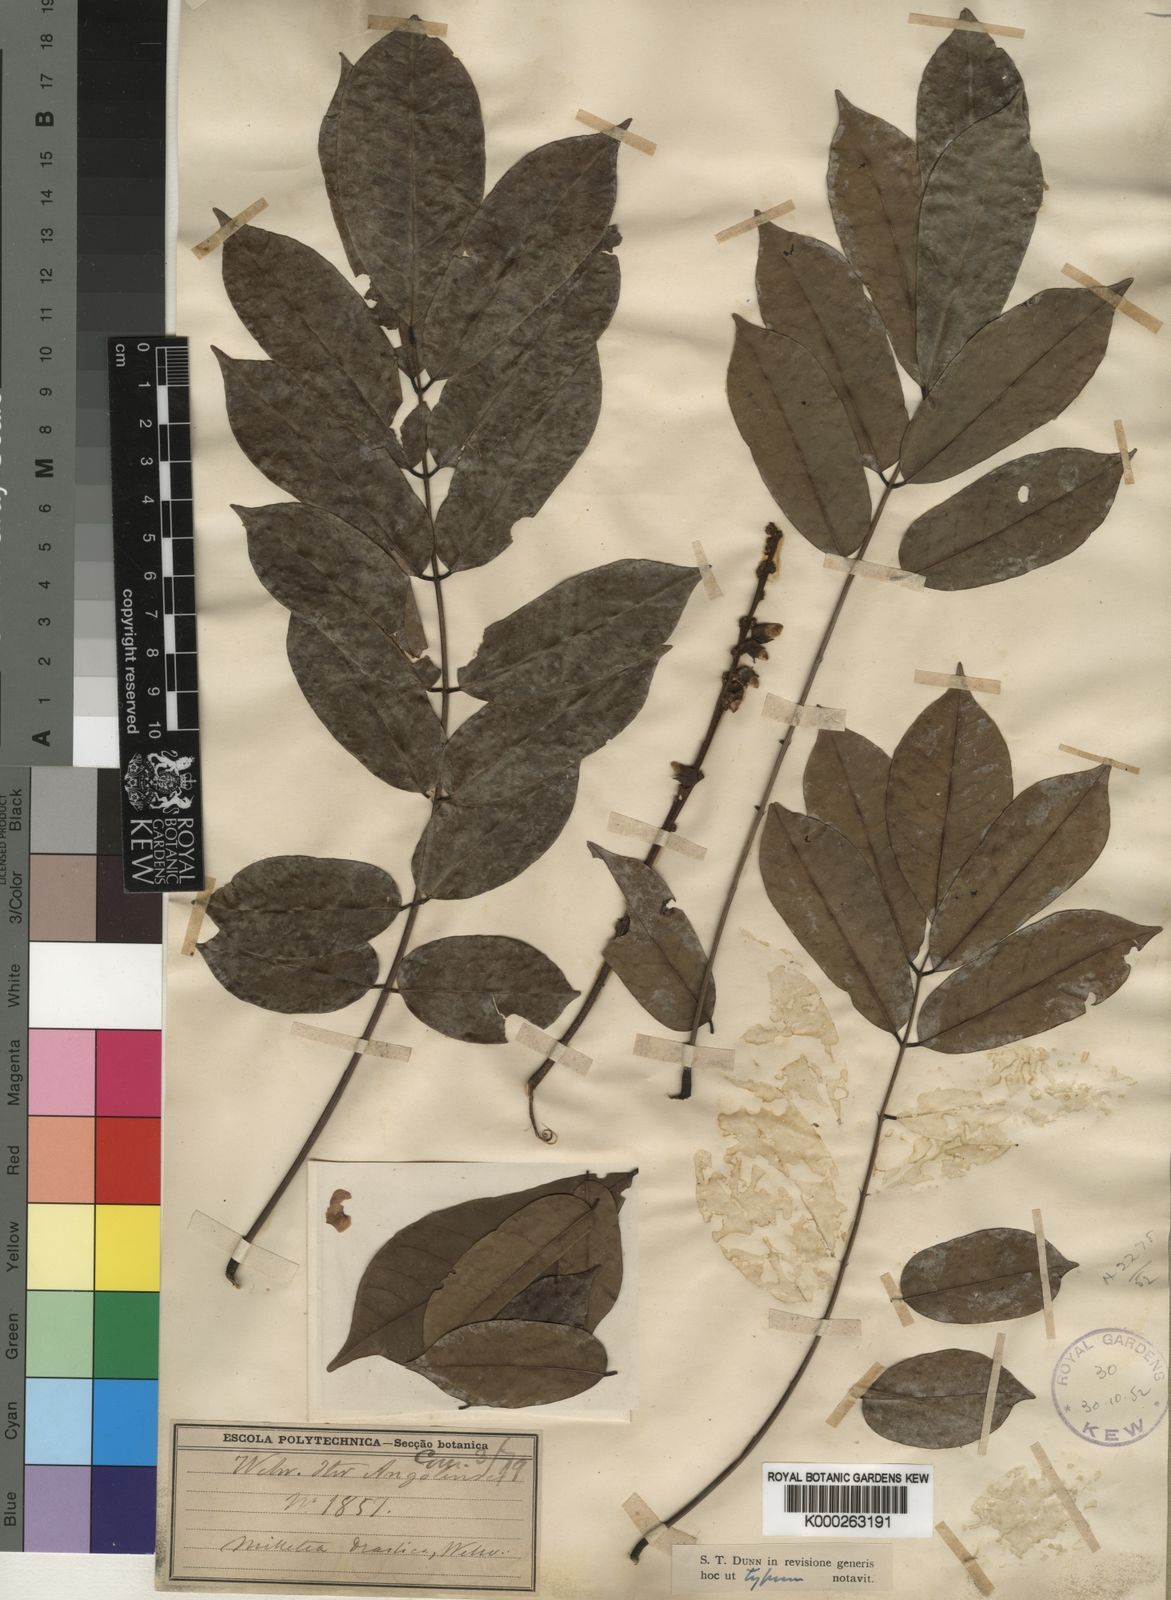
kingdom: Plantae
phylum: Tracheophyta
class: Magnoliopsida
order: Fabales
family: Fabaceae
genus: Millettia
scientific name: Millettia
